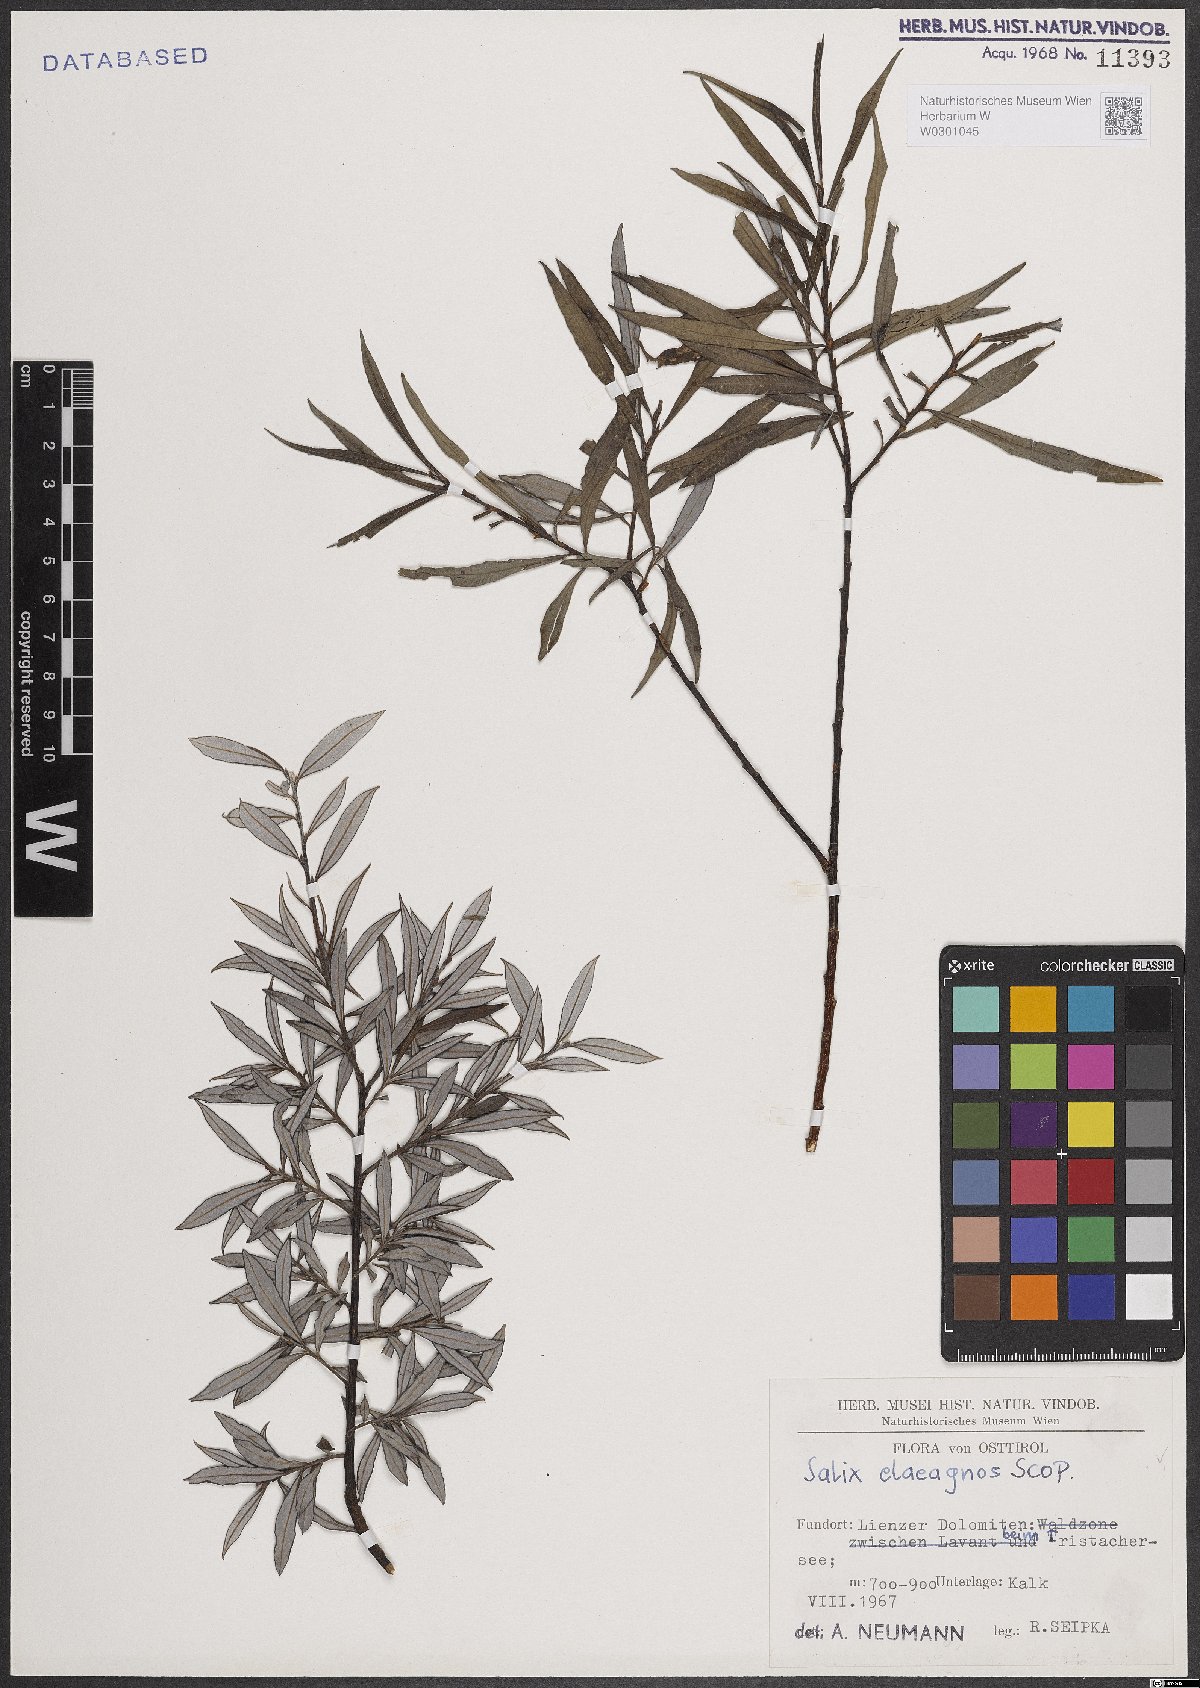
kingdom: Plantae
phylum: Tracheophyta
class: Magnoliopsida
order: Malpighiales
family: Salicaceae
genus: Salix
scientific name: Salix eleagnos
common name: Elaeagnus willow
